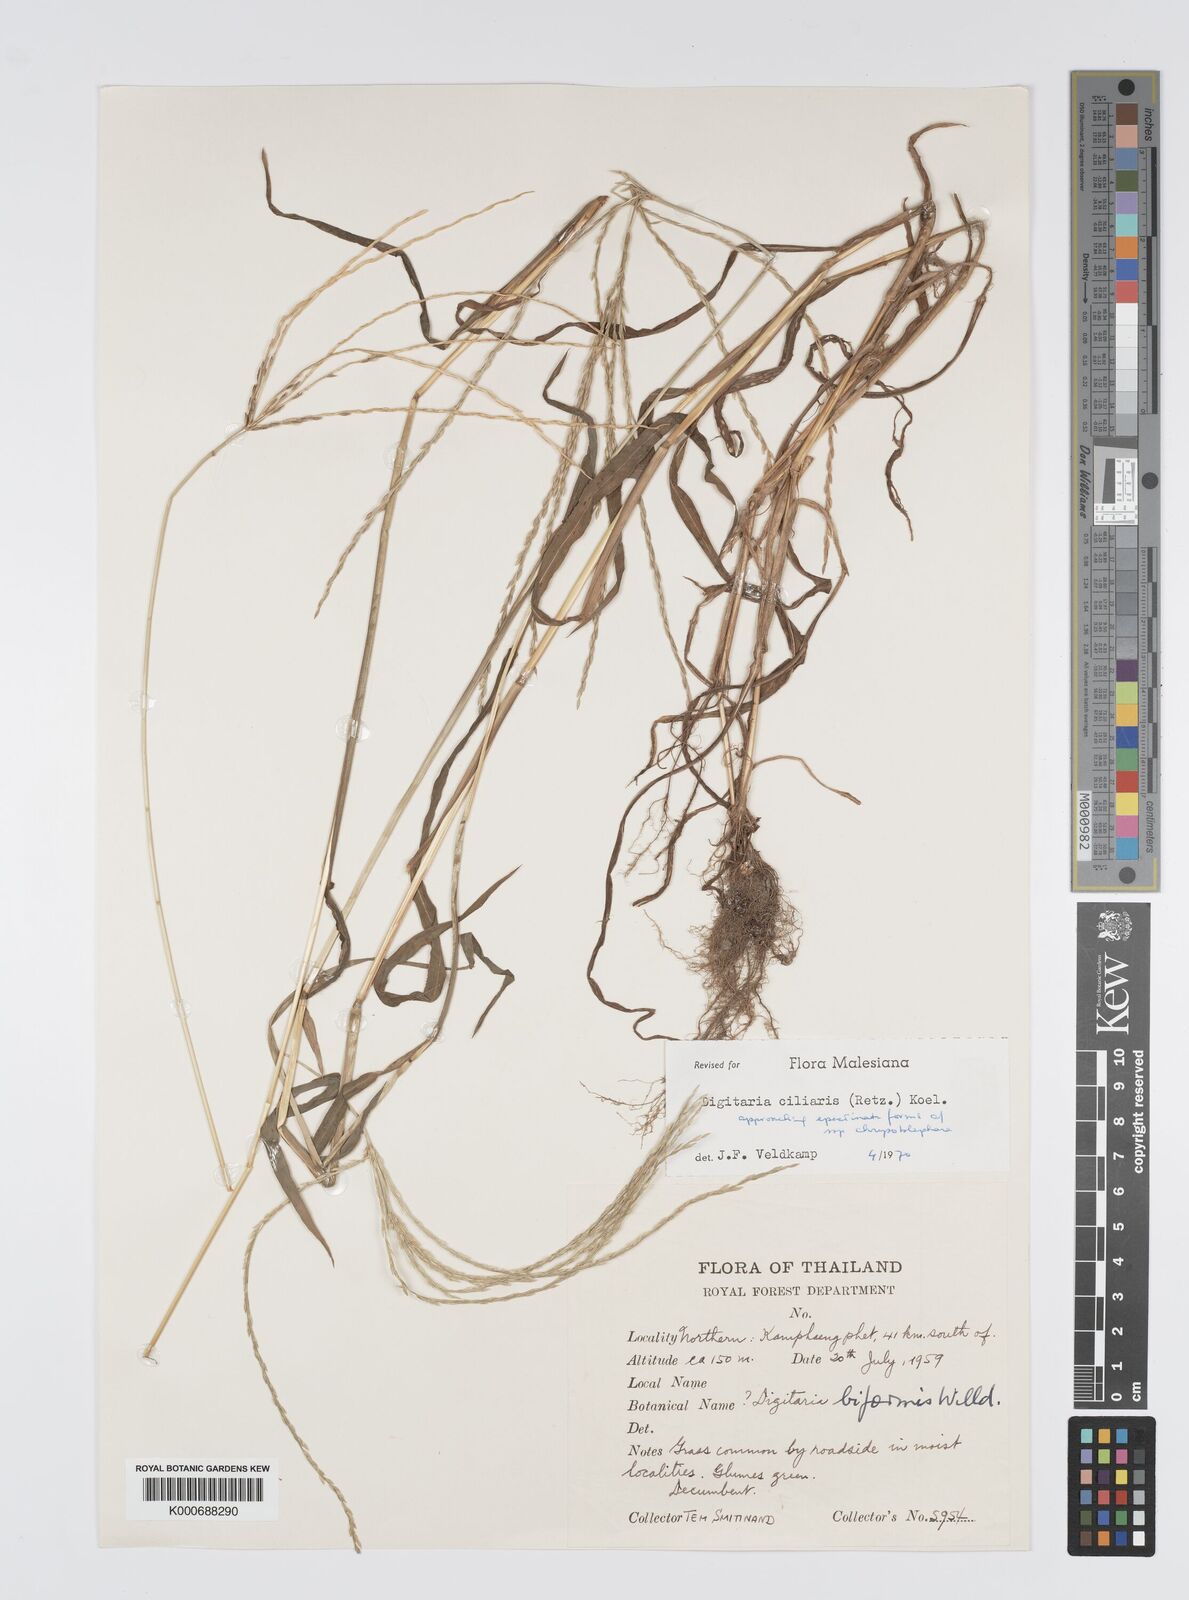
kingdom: Plantae
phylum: Tracheophyta
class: Liliopsida
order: Poales
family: Poaceae
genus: Digitaria
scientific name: Digitaria ciliaris
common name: Tropical finger-grass
